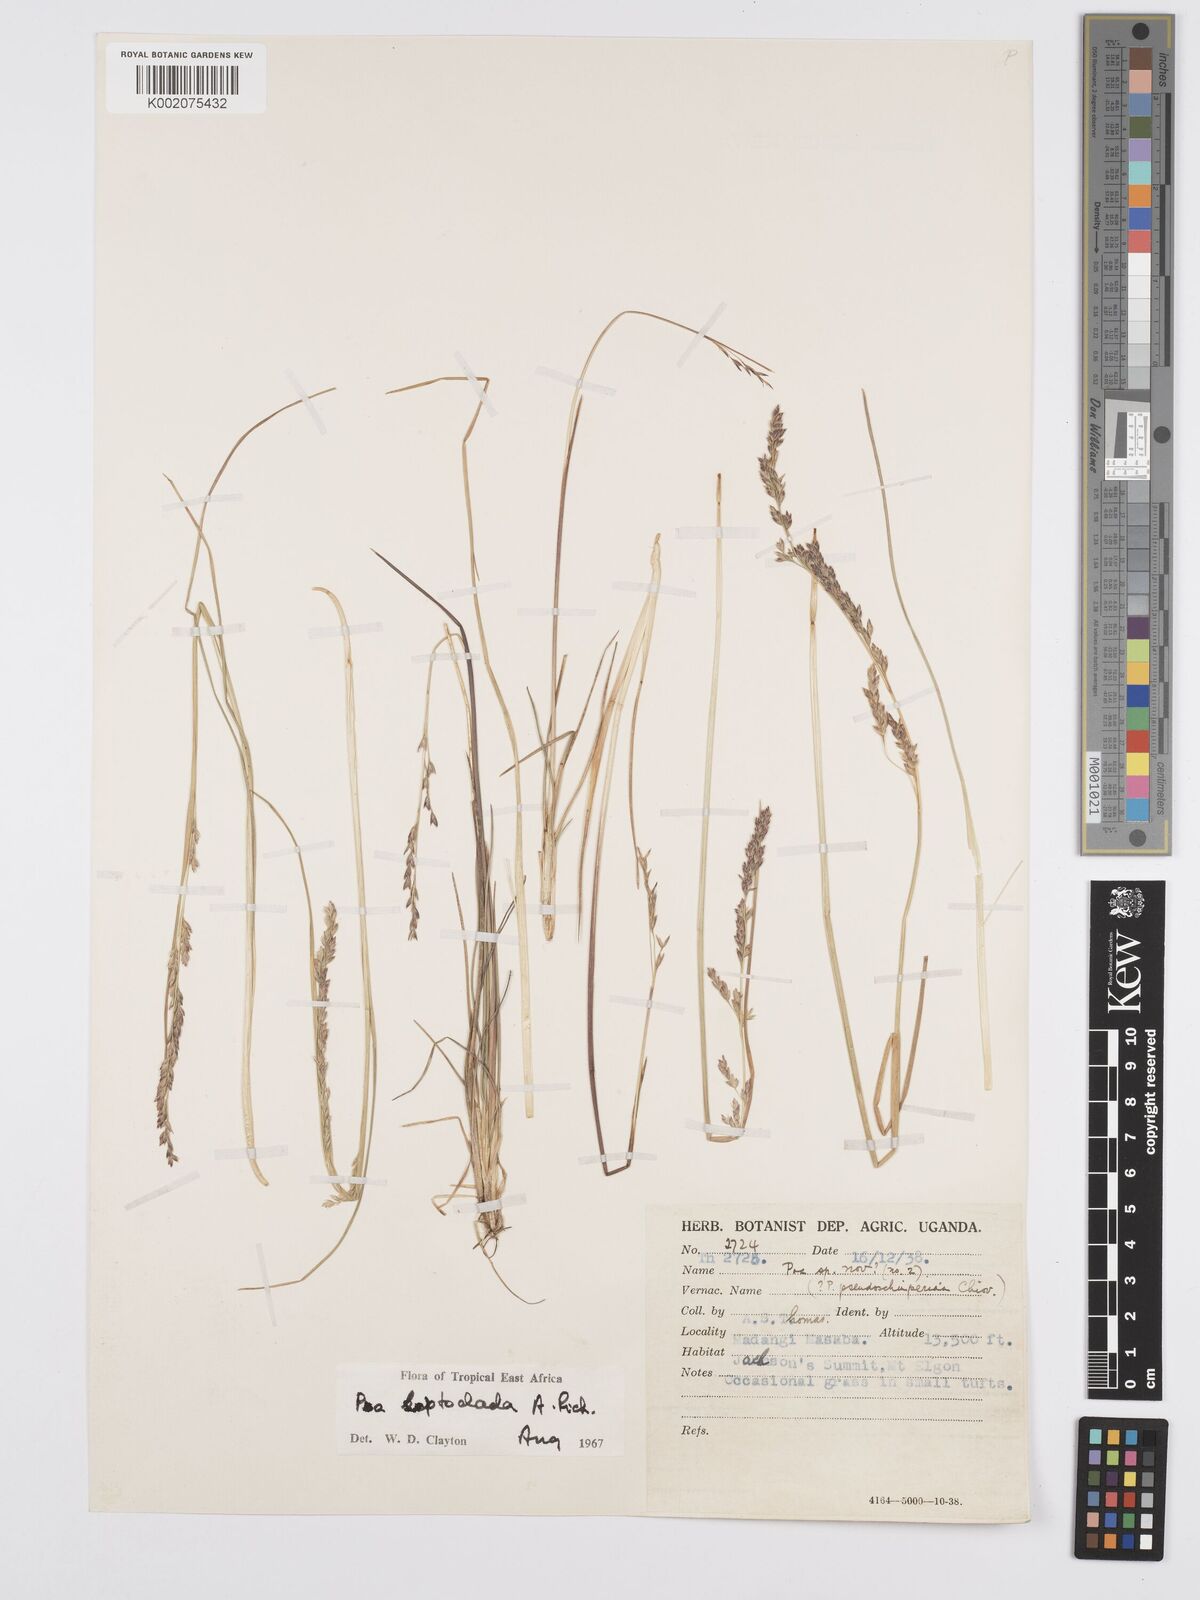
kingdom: Plantae
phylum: Tracheophyta
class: Liliopsida
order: Poales
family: Poaceae
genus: Poa
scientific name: Poa
